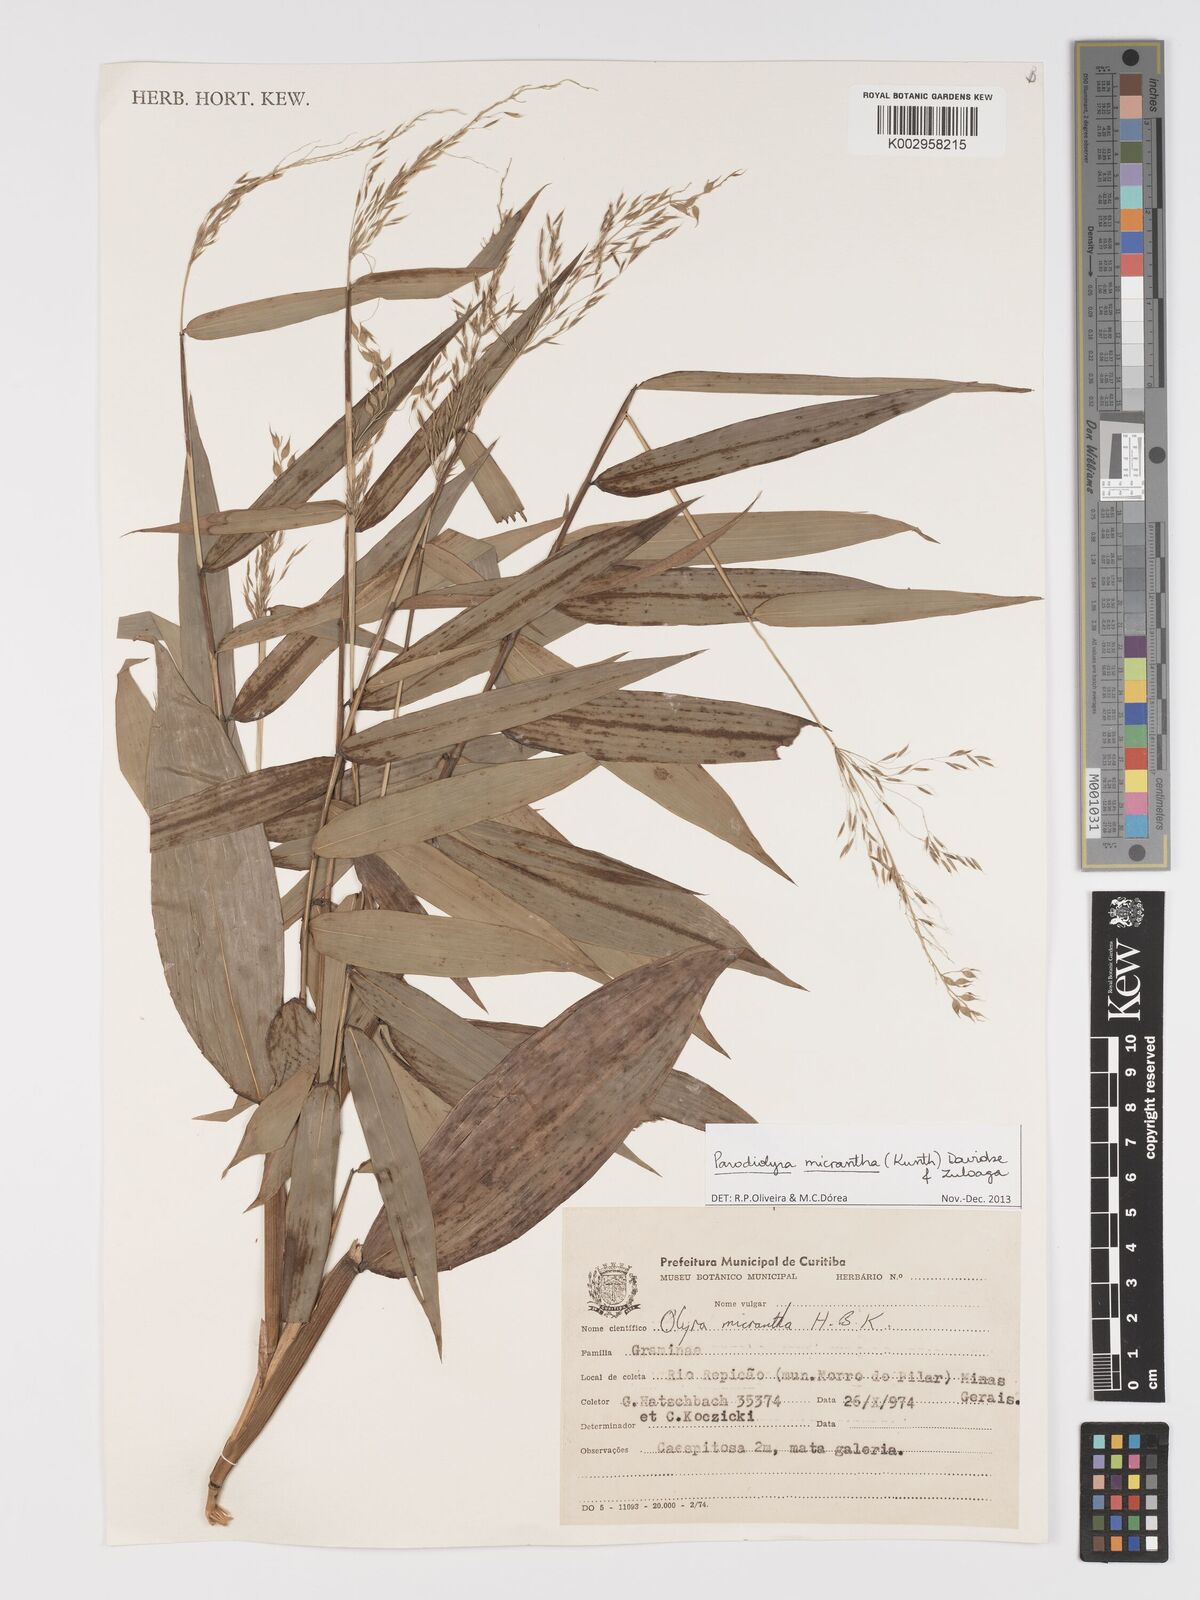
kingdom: Plantae
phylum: Tracheophyta
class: Liliopsida
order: Poales
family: Poaceae
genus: Taquara
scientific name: Taquara micrantha
